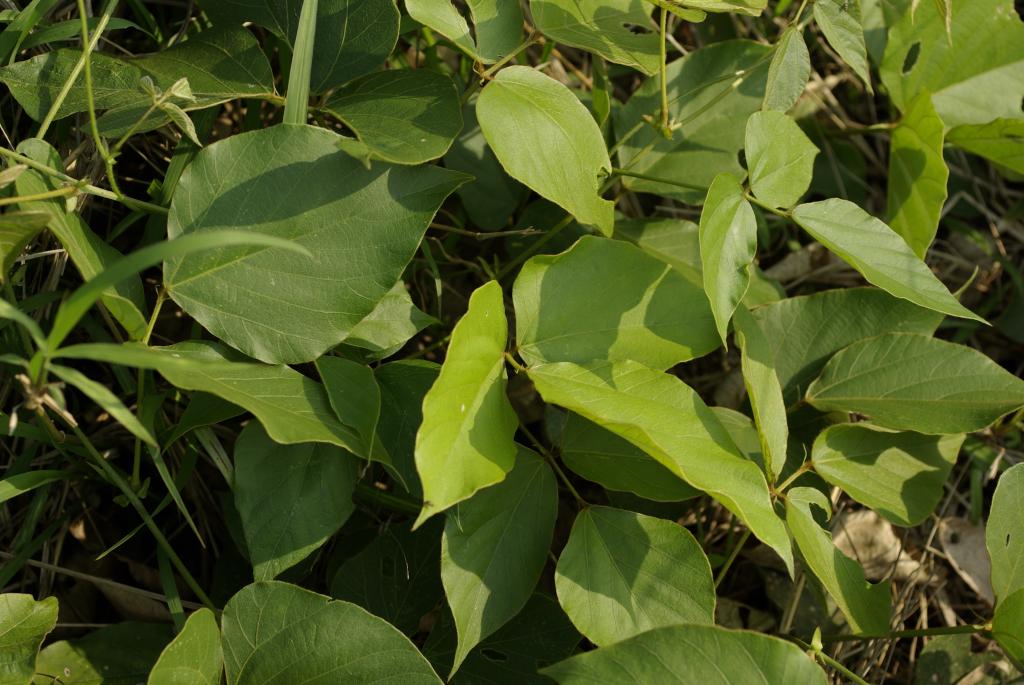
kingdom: Plantae
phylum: Tracheophyta
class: Magnoliopsida
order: Fabales
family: Fabaceae
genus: Pueraria
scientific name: Pueraria montana
